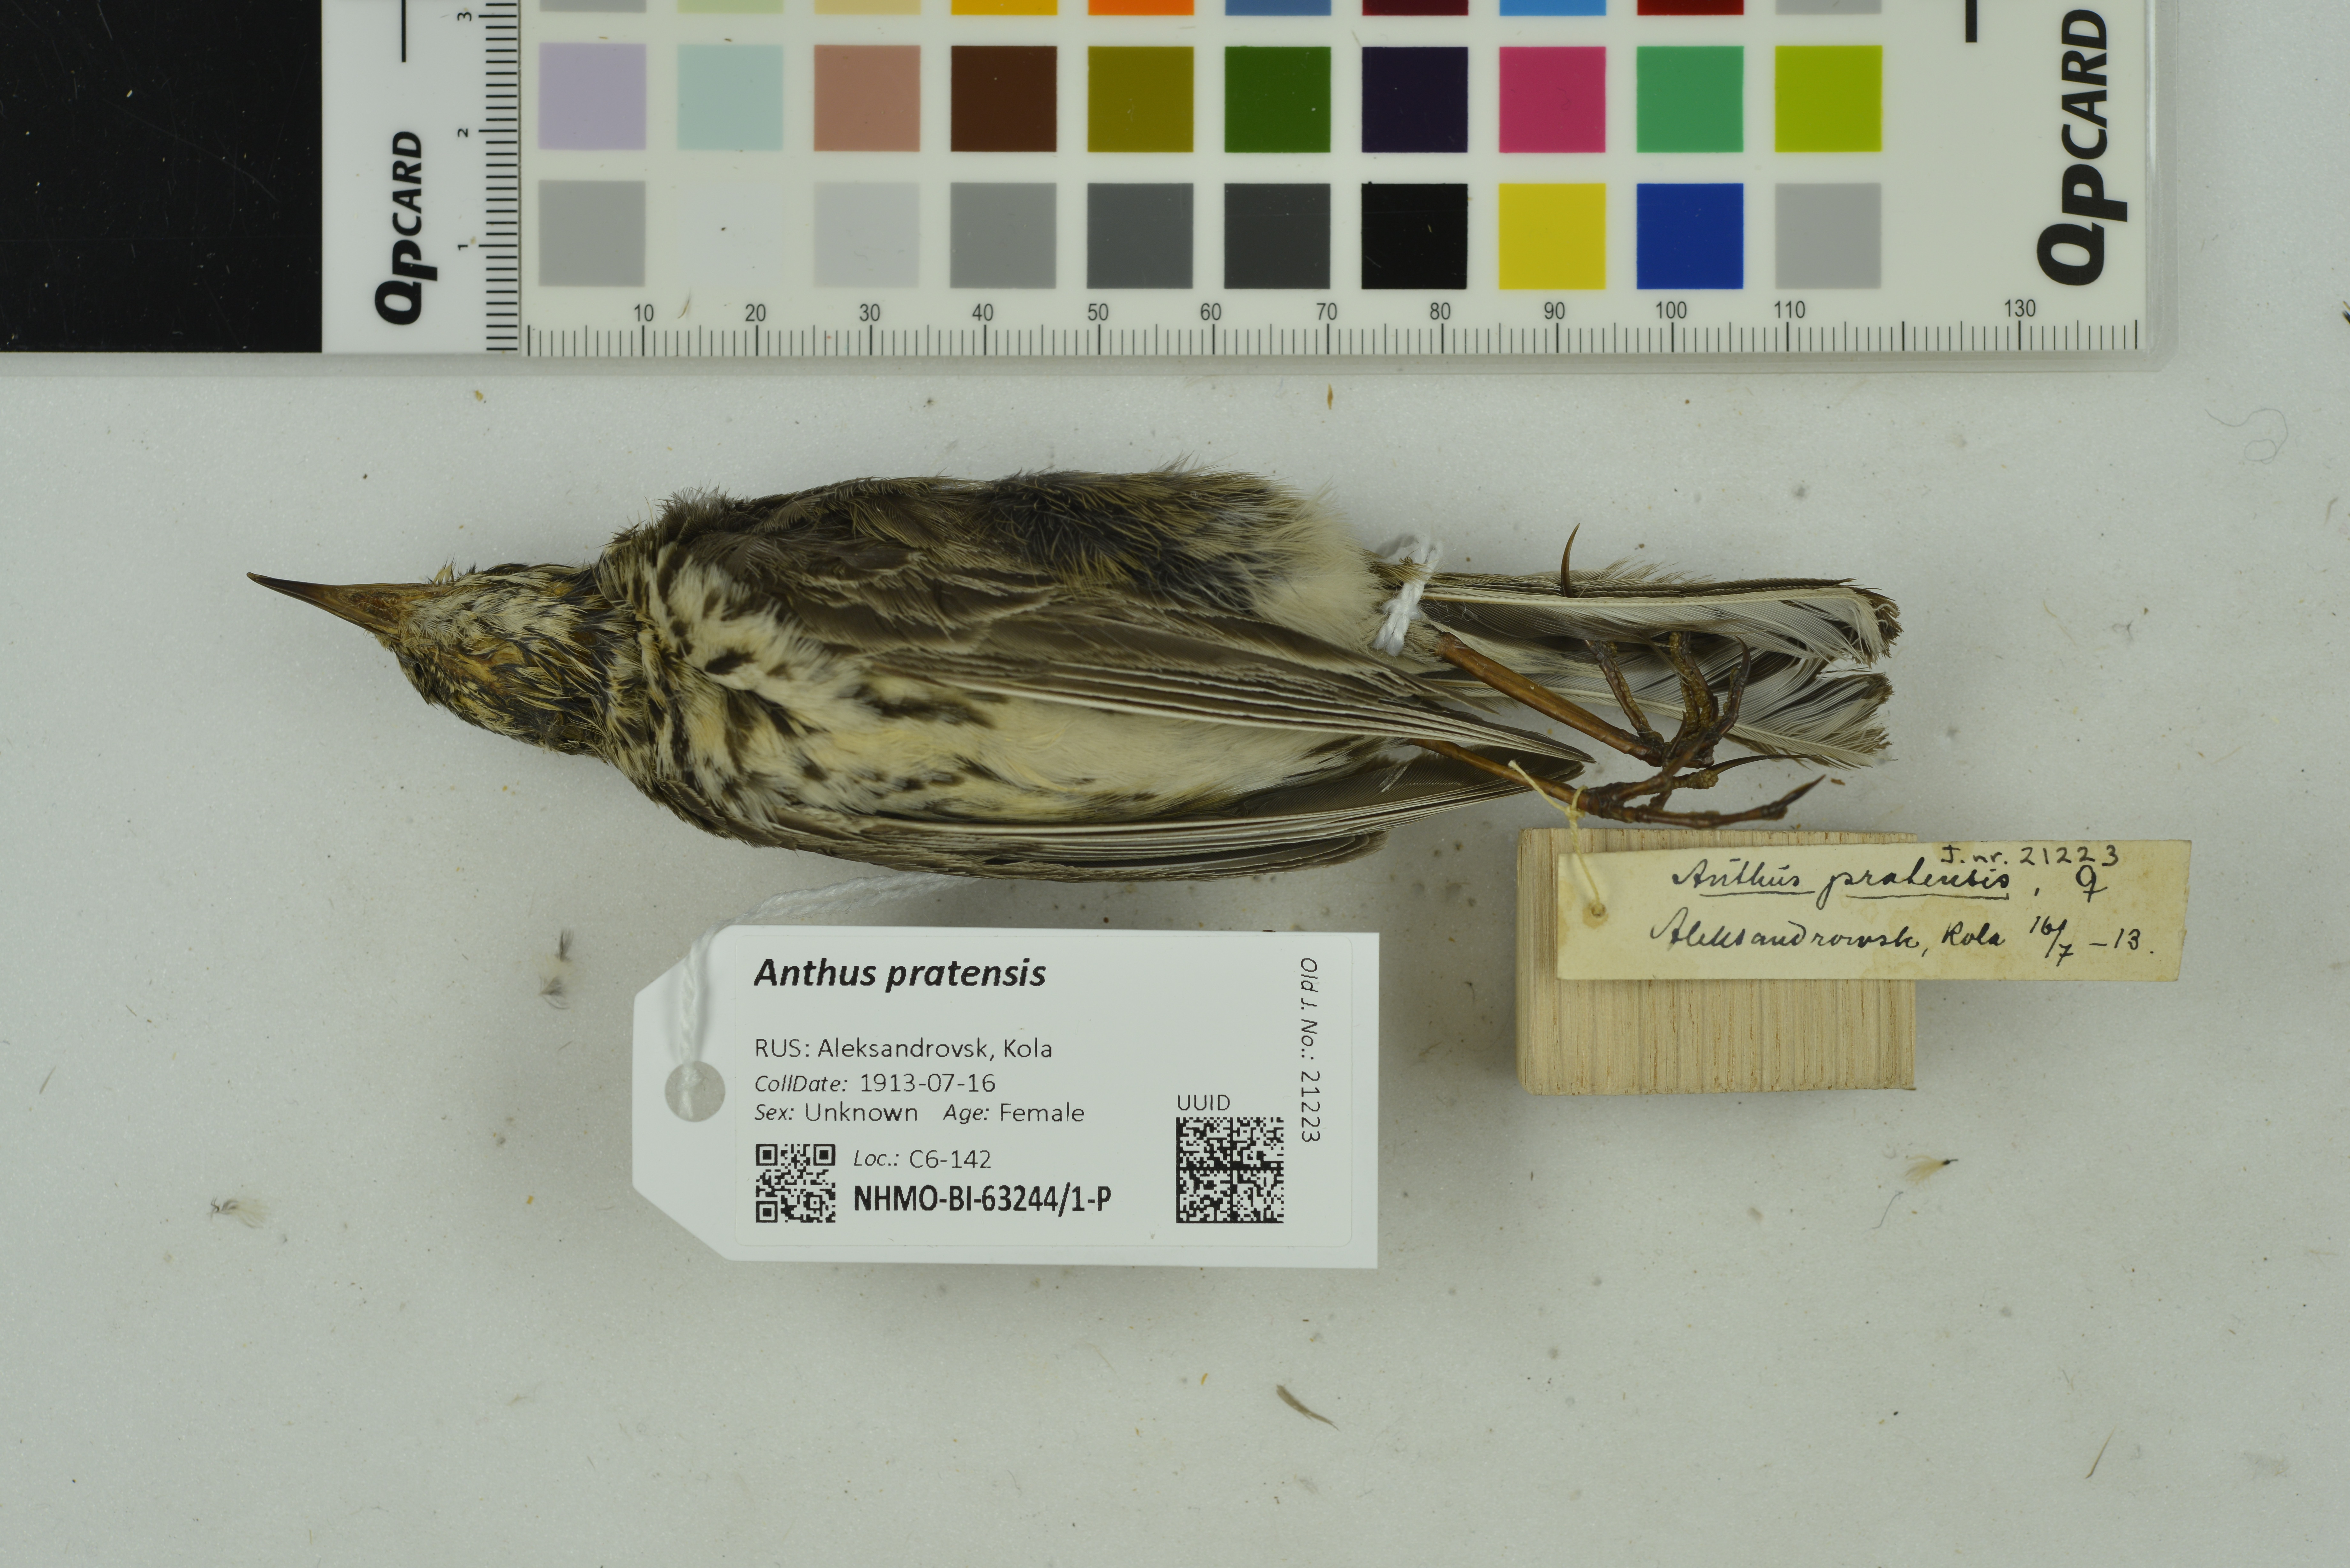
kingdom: Animalia
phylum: Chordata
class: Aves
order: Passeriformes
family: Motacillidae
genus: Anthus
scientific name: Anthus pratensis
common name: Meadow pipit
